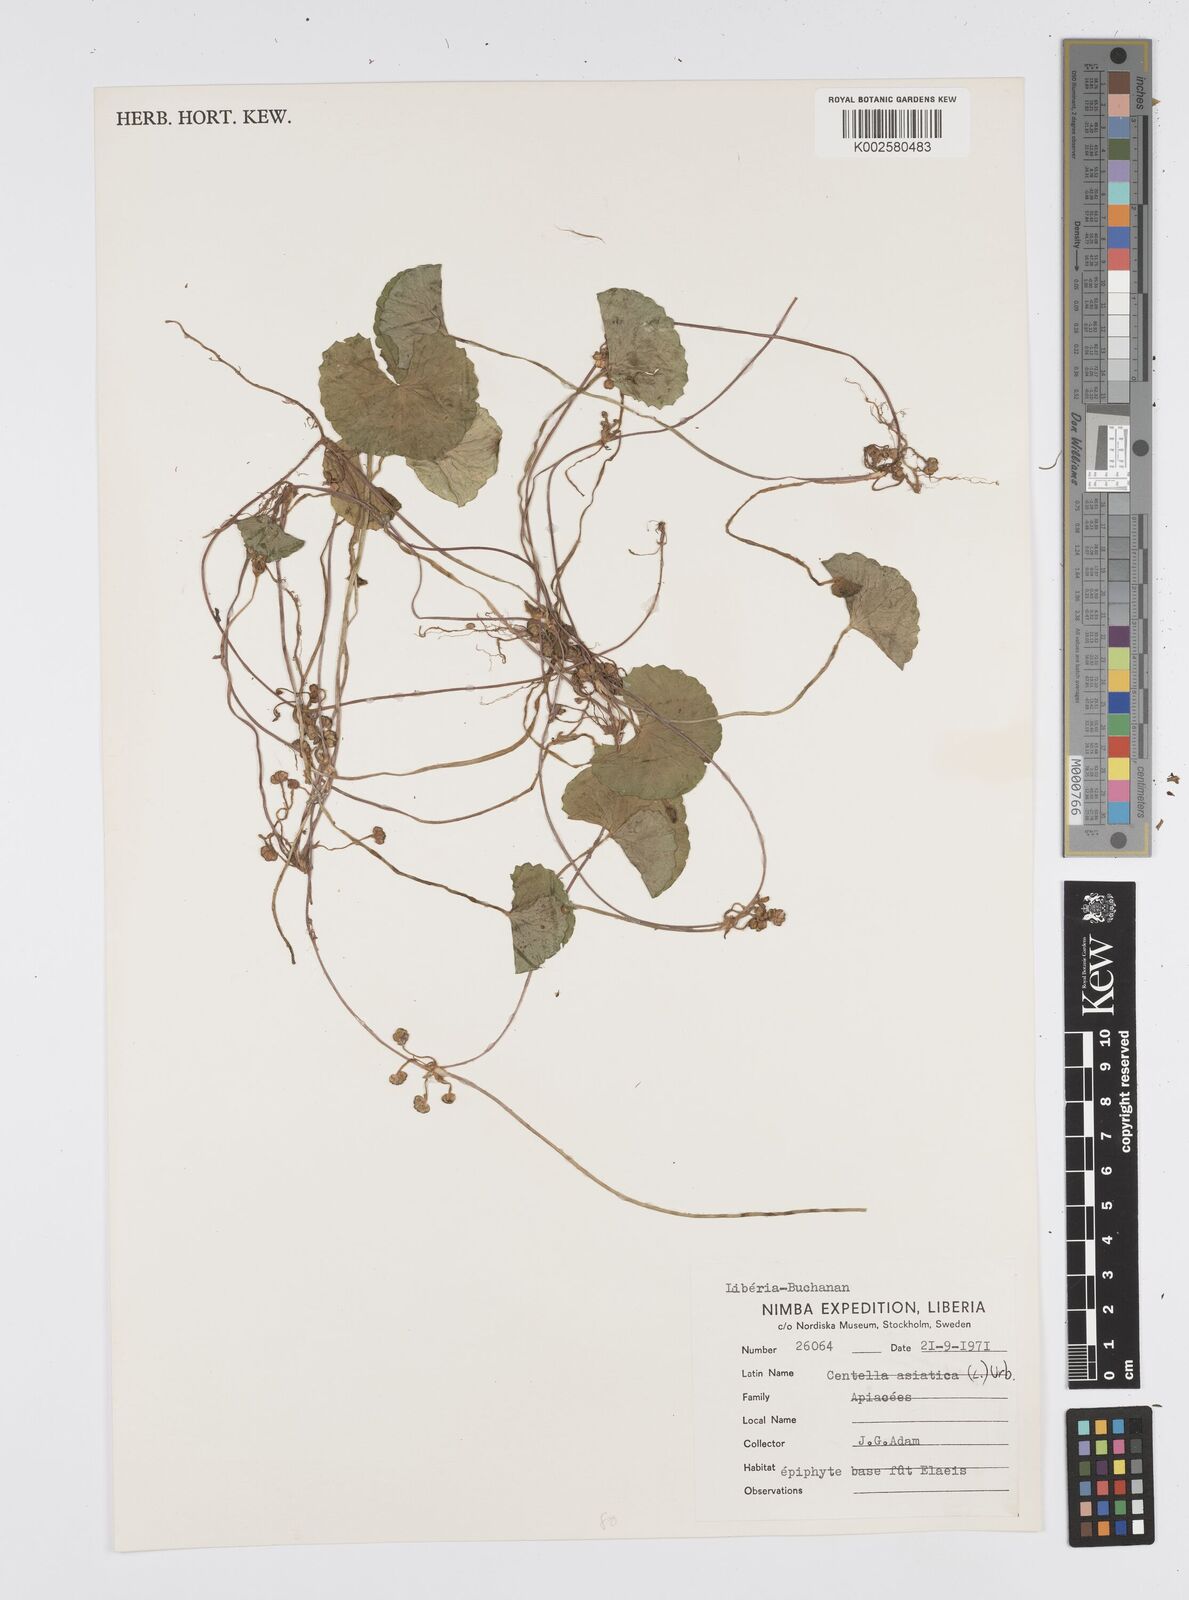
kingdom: Plantae
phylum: Tracheophyta
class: Magnoliopsida
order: Apiales
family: Apiaceae
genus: Centella
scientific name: Centella asiatica
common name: Spadeleaf
